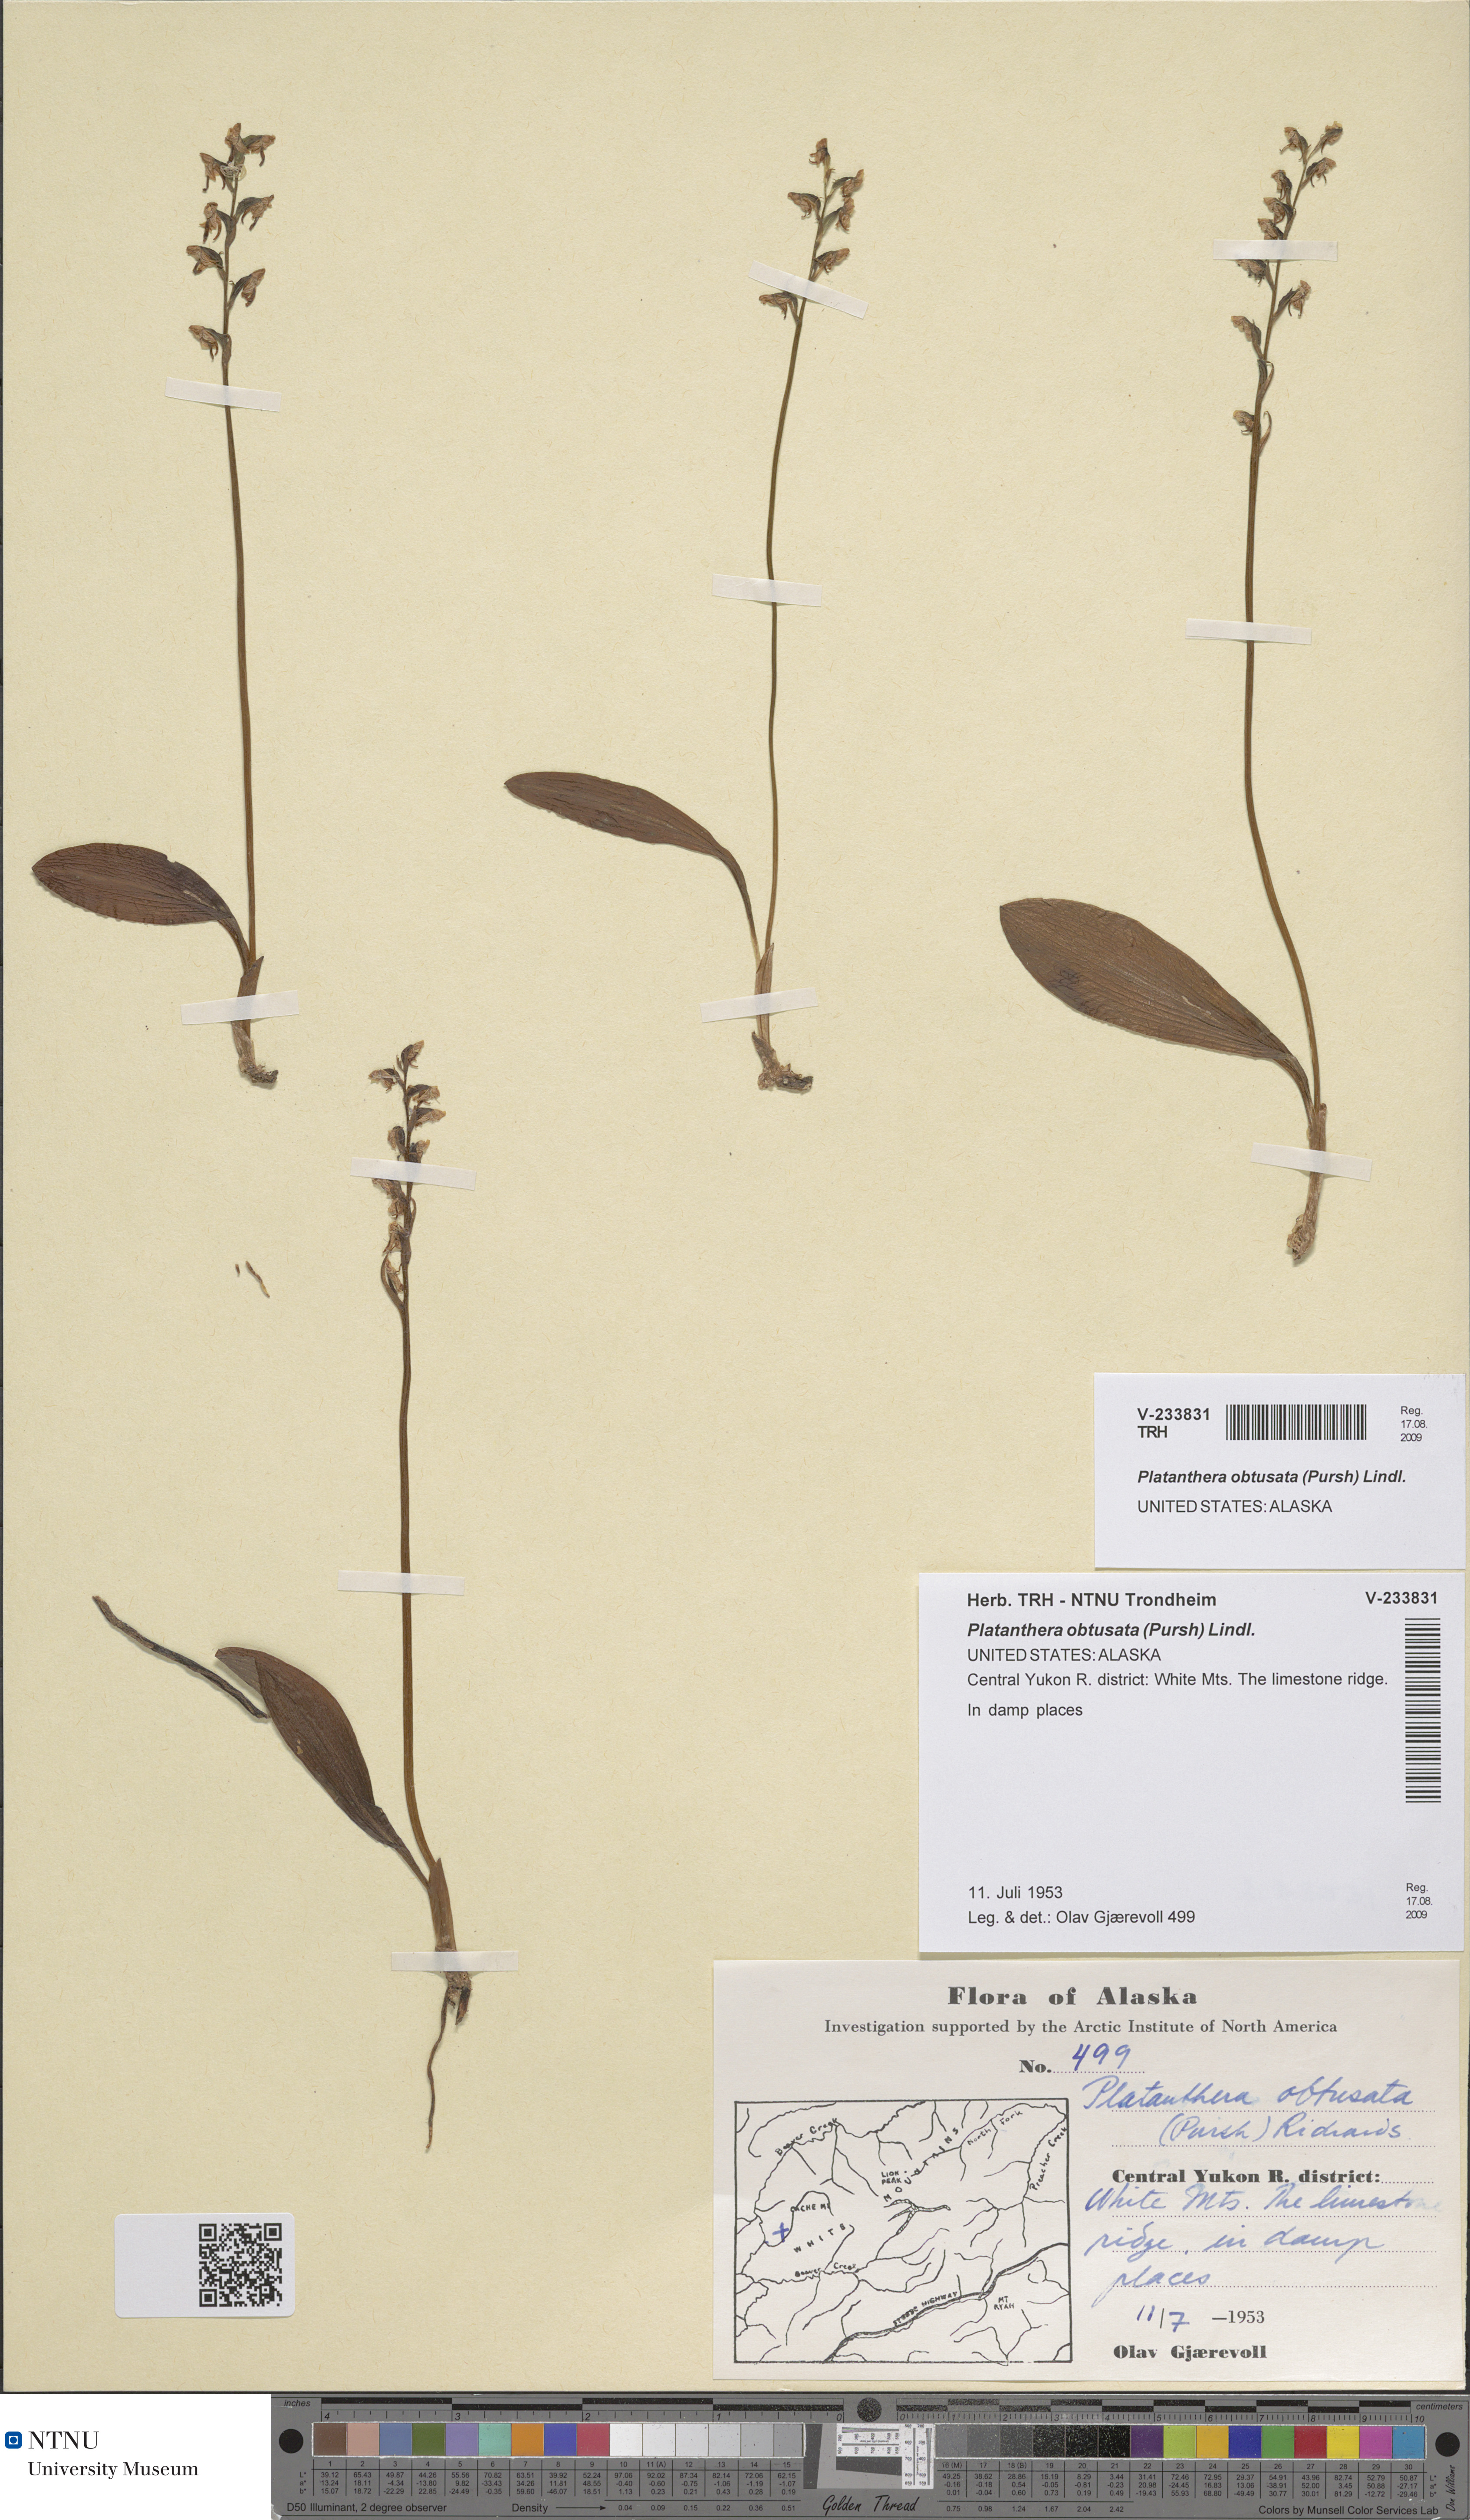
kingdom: Plantae
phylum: Tracheophyta
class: Liliopsida
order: Asparagales
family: Orchidaceae
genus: Platanthera
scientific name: Platanthera obtusata
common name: Blunt bog orchid
